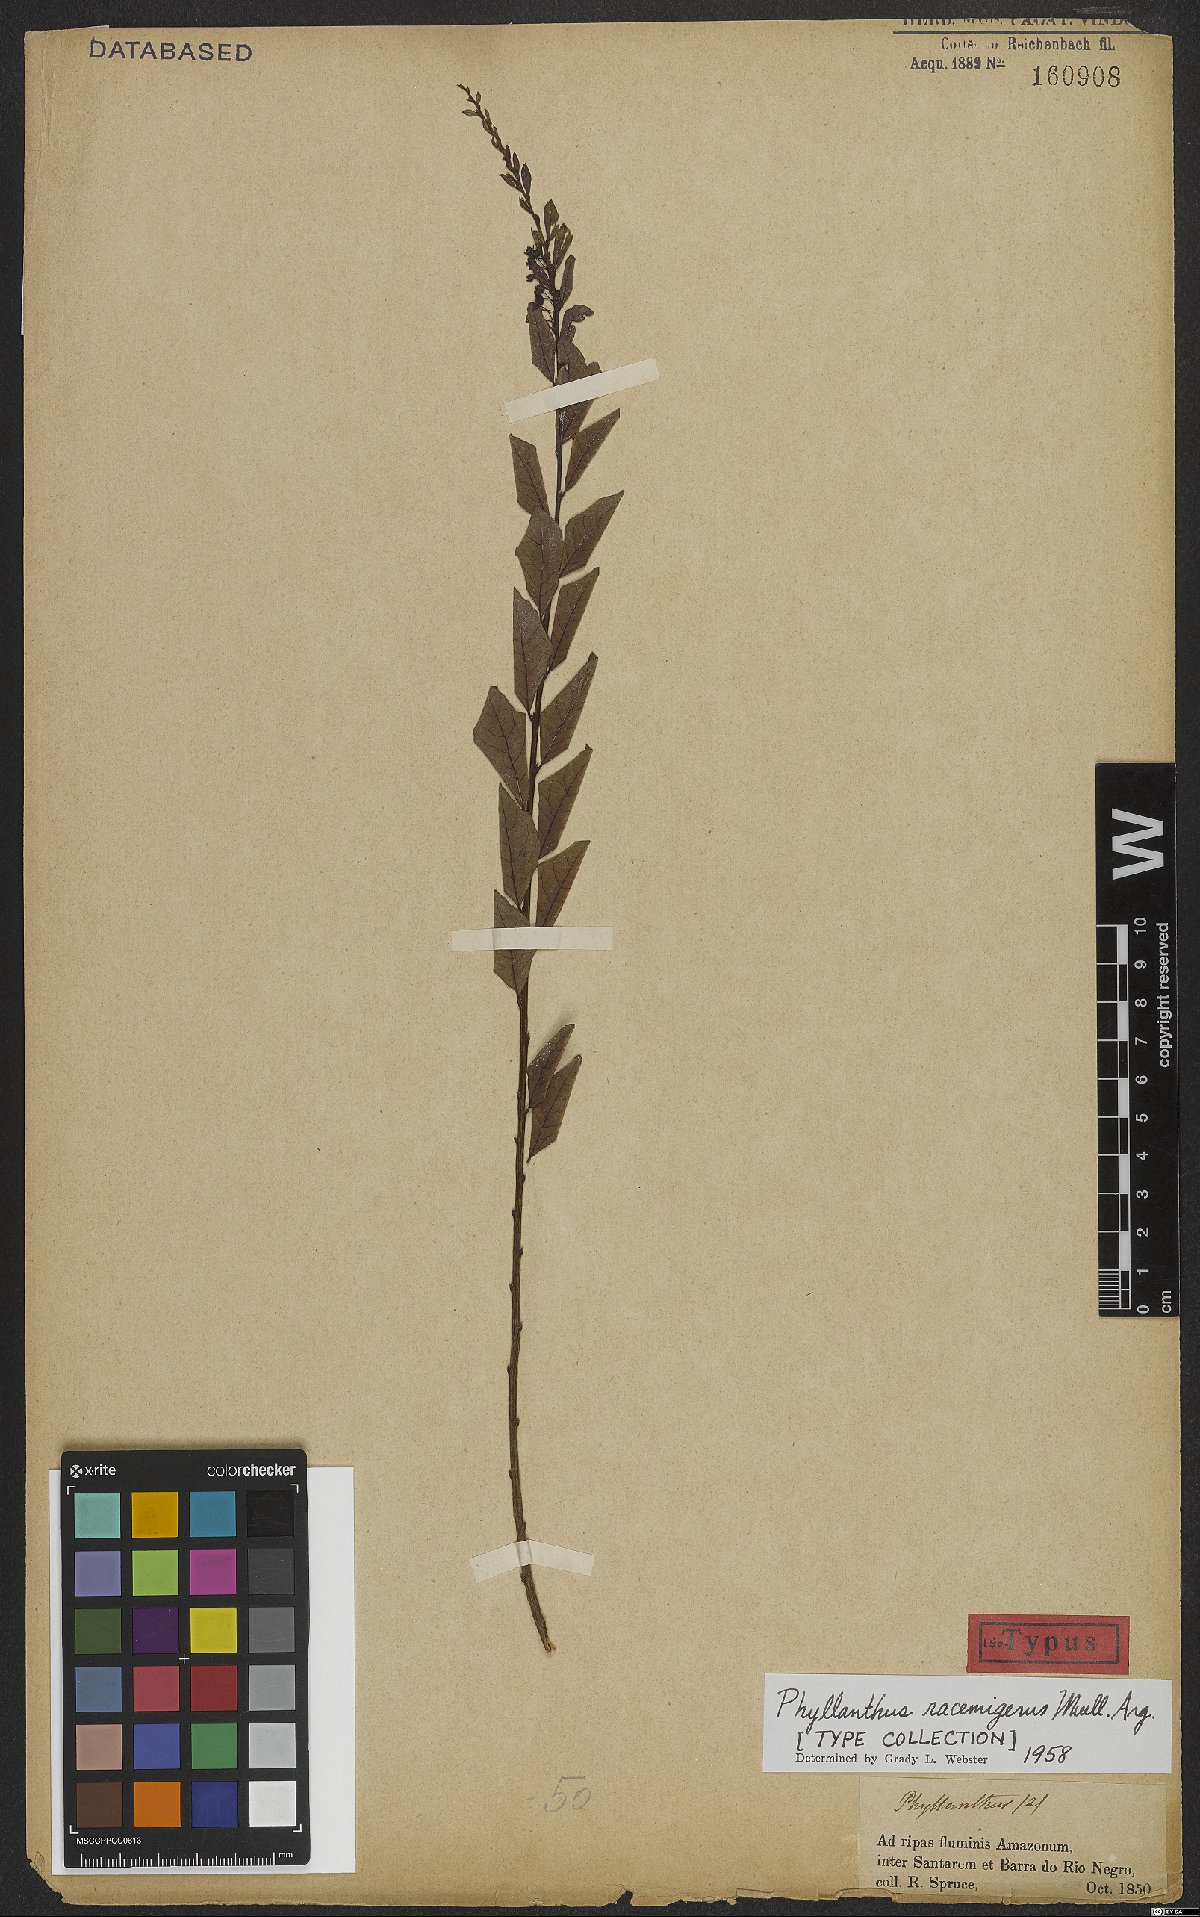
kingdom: Plantae
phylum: Tracheophyta
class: Magnoliopsida
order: Malpighiales
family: Phyllanthaceae
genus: Phyllanthus
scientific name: Phyllanthus racemigerus
